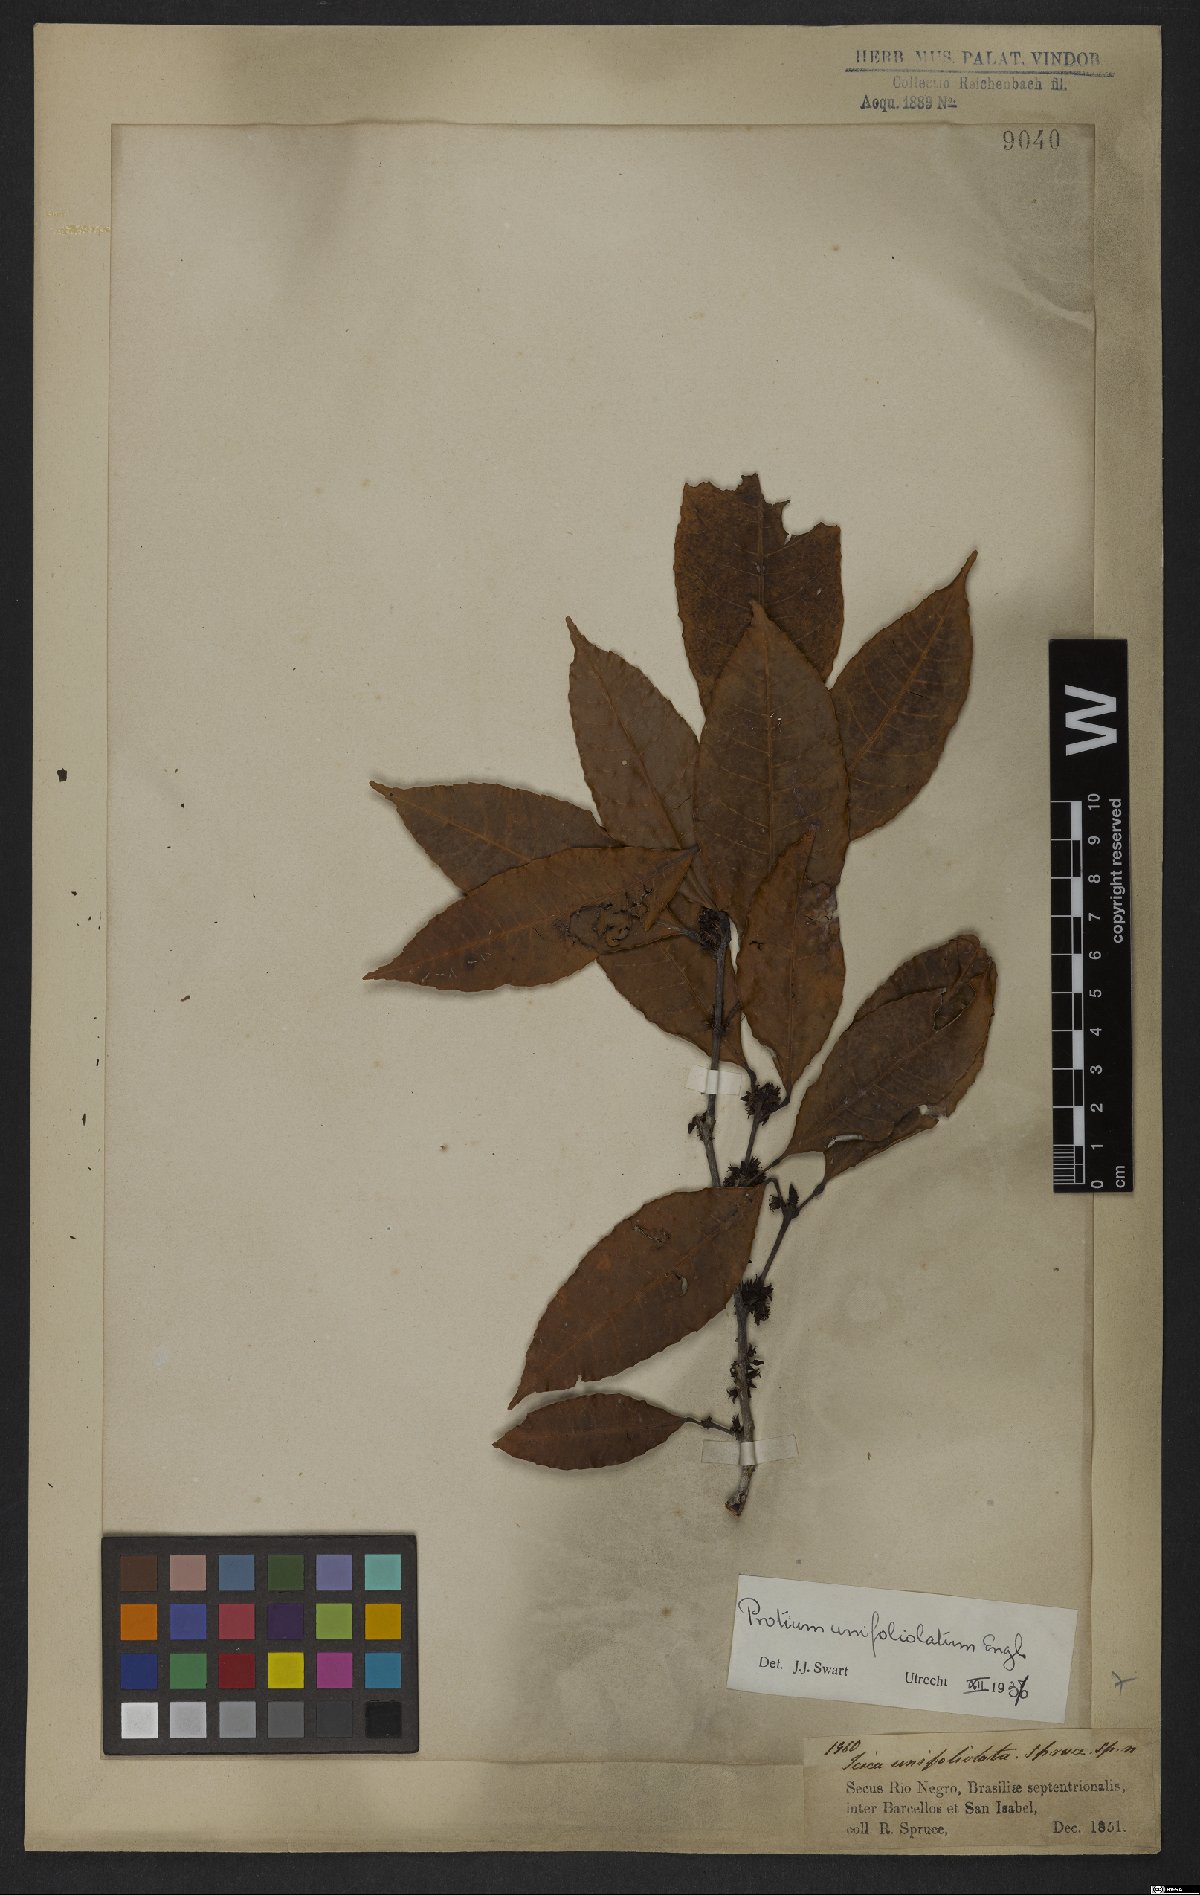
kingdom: Plantae
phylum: Tracheophyta
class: Magnoliopsida
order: Sapindales
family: Burseraceae
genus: Protium
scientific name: Protium unifoliolatum
